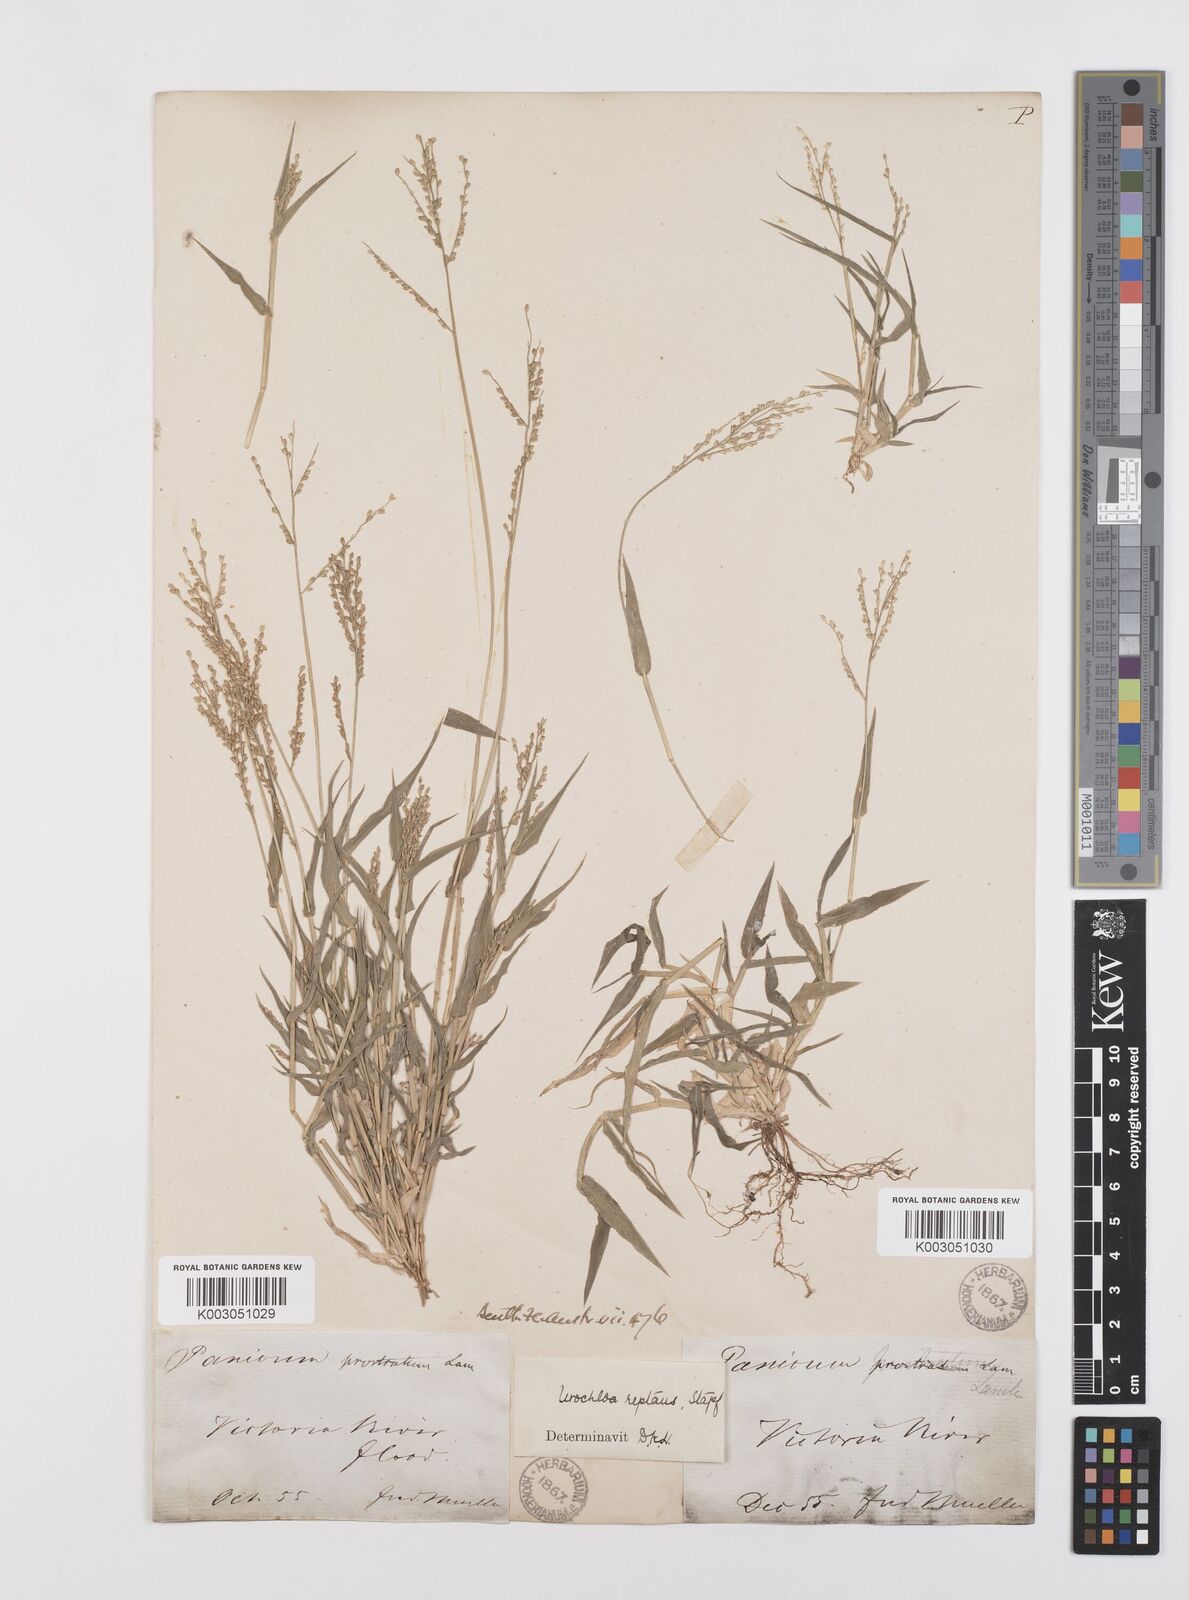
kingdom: Plantae
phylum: Tracheophyta
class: Liliopsida
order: Poales
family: Poaceae
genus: Urochloa
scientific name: Urochloa reptans
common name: Sprawling signalgrass
